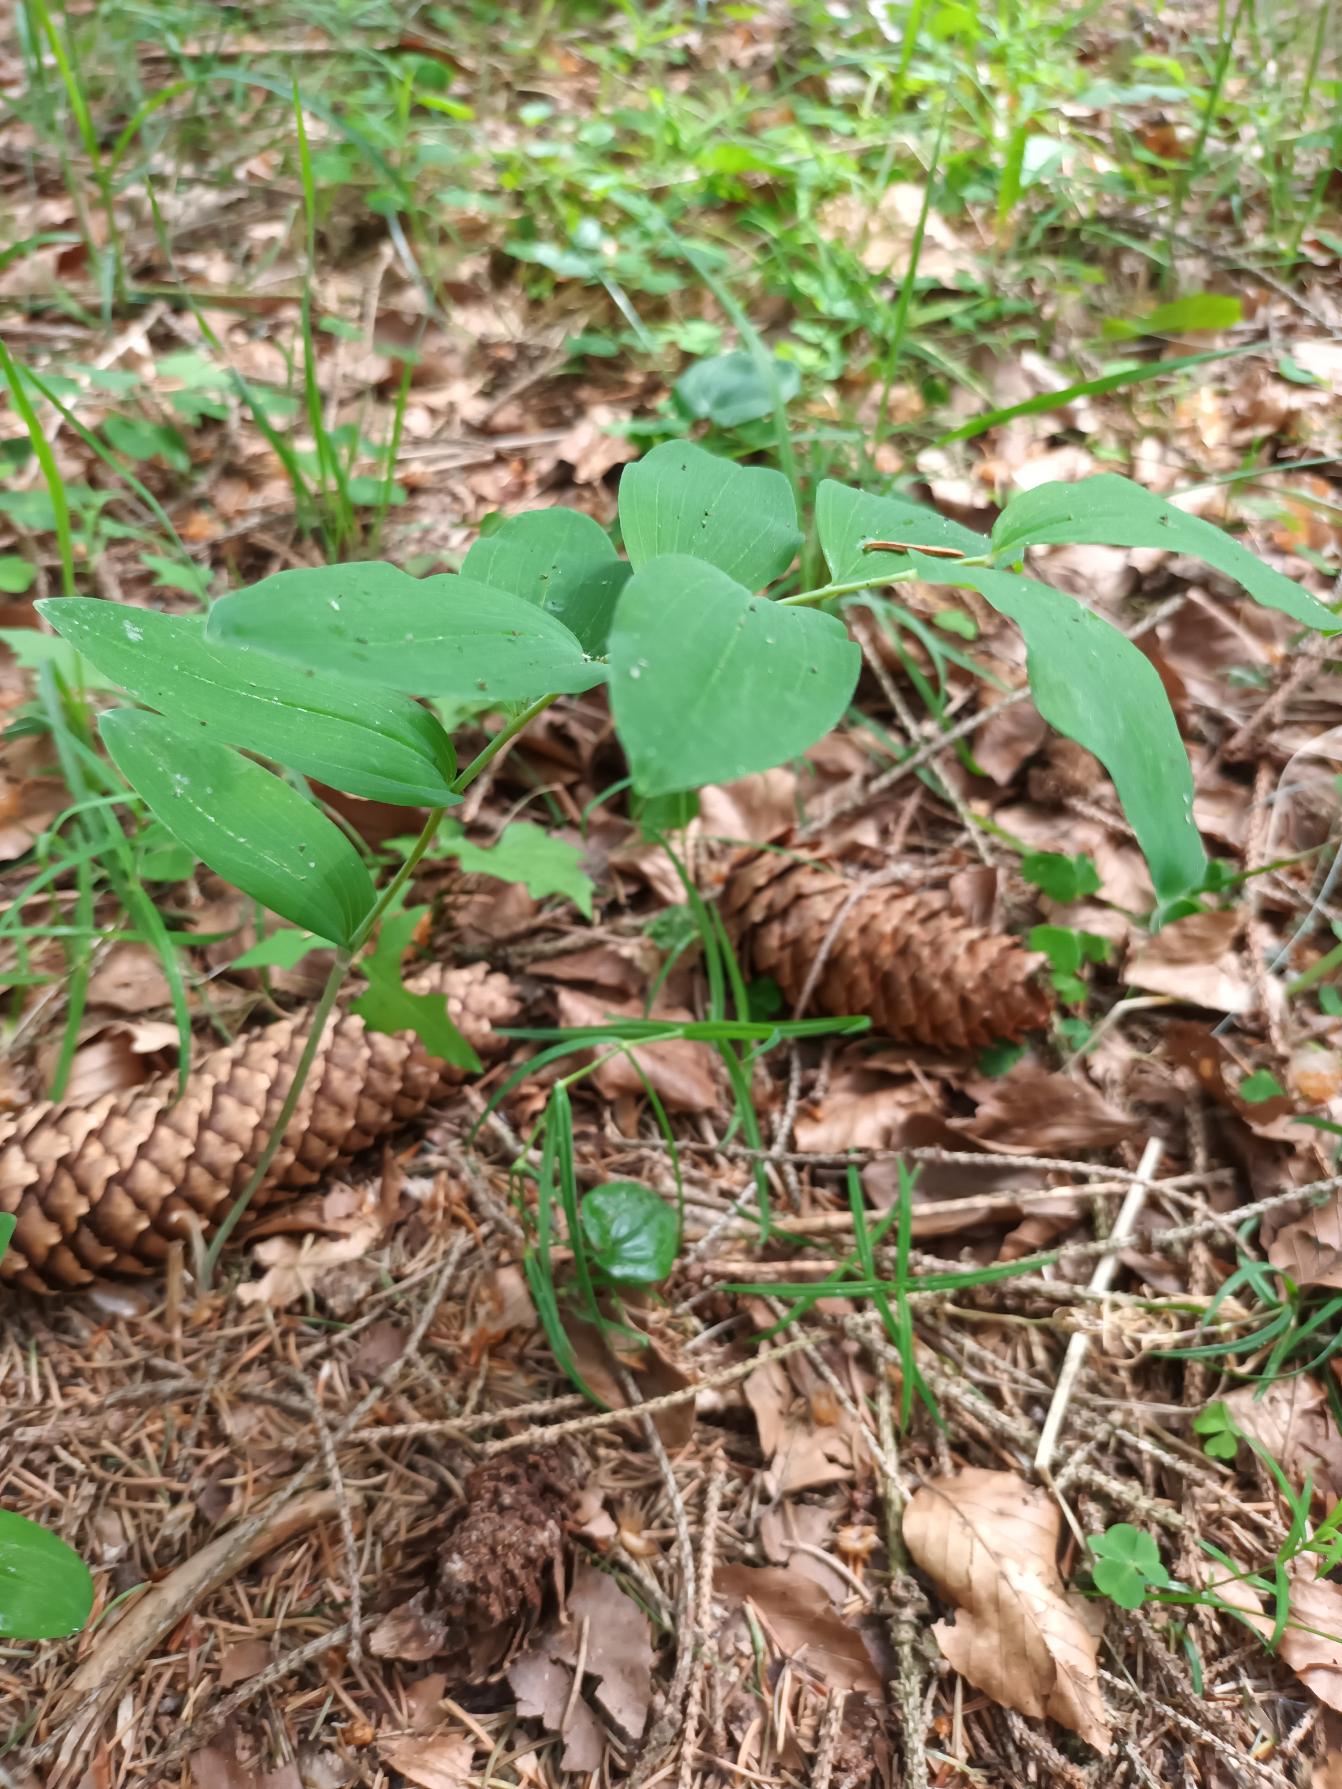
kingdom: Plantae
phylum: Tracheophyta
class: Liliopsida
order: Asparagales
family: Asparagaceae
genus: Polygonatum
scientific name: Polygonatum multiflorum
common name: Stor konval
